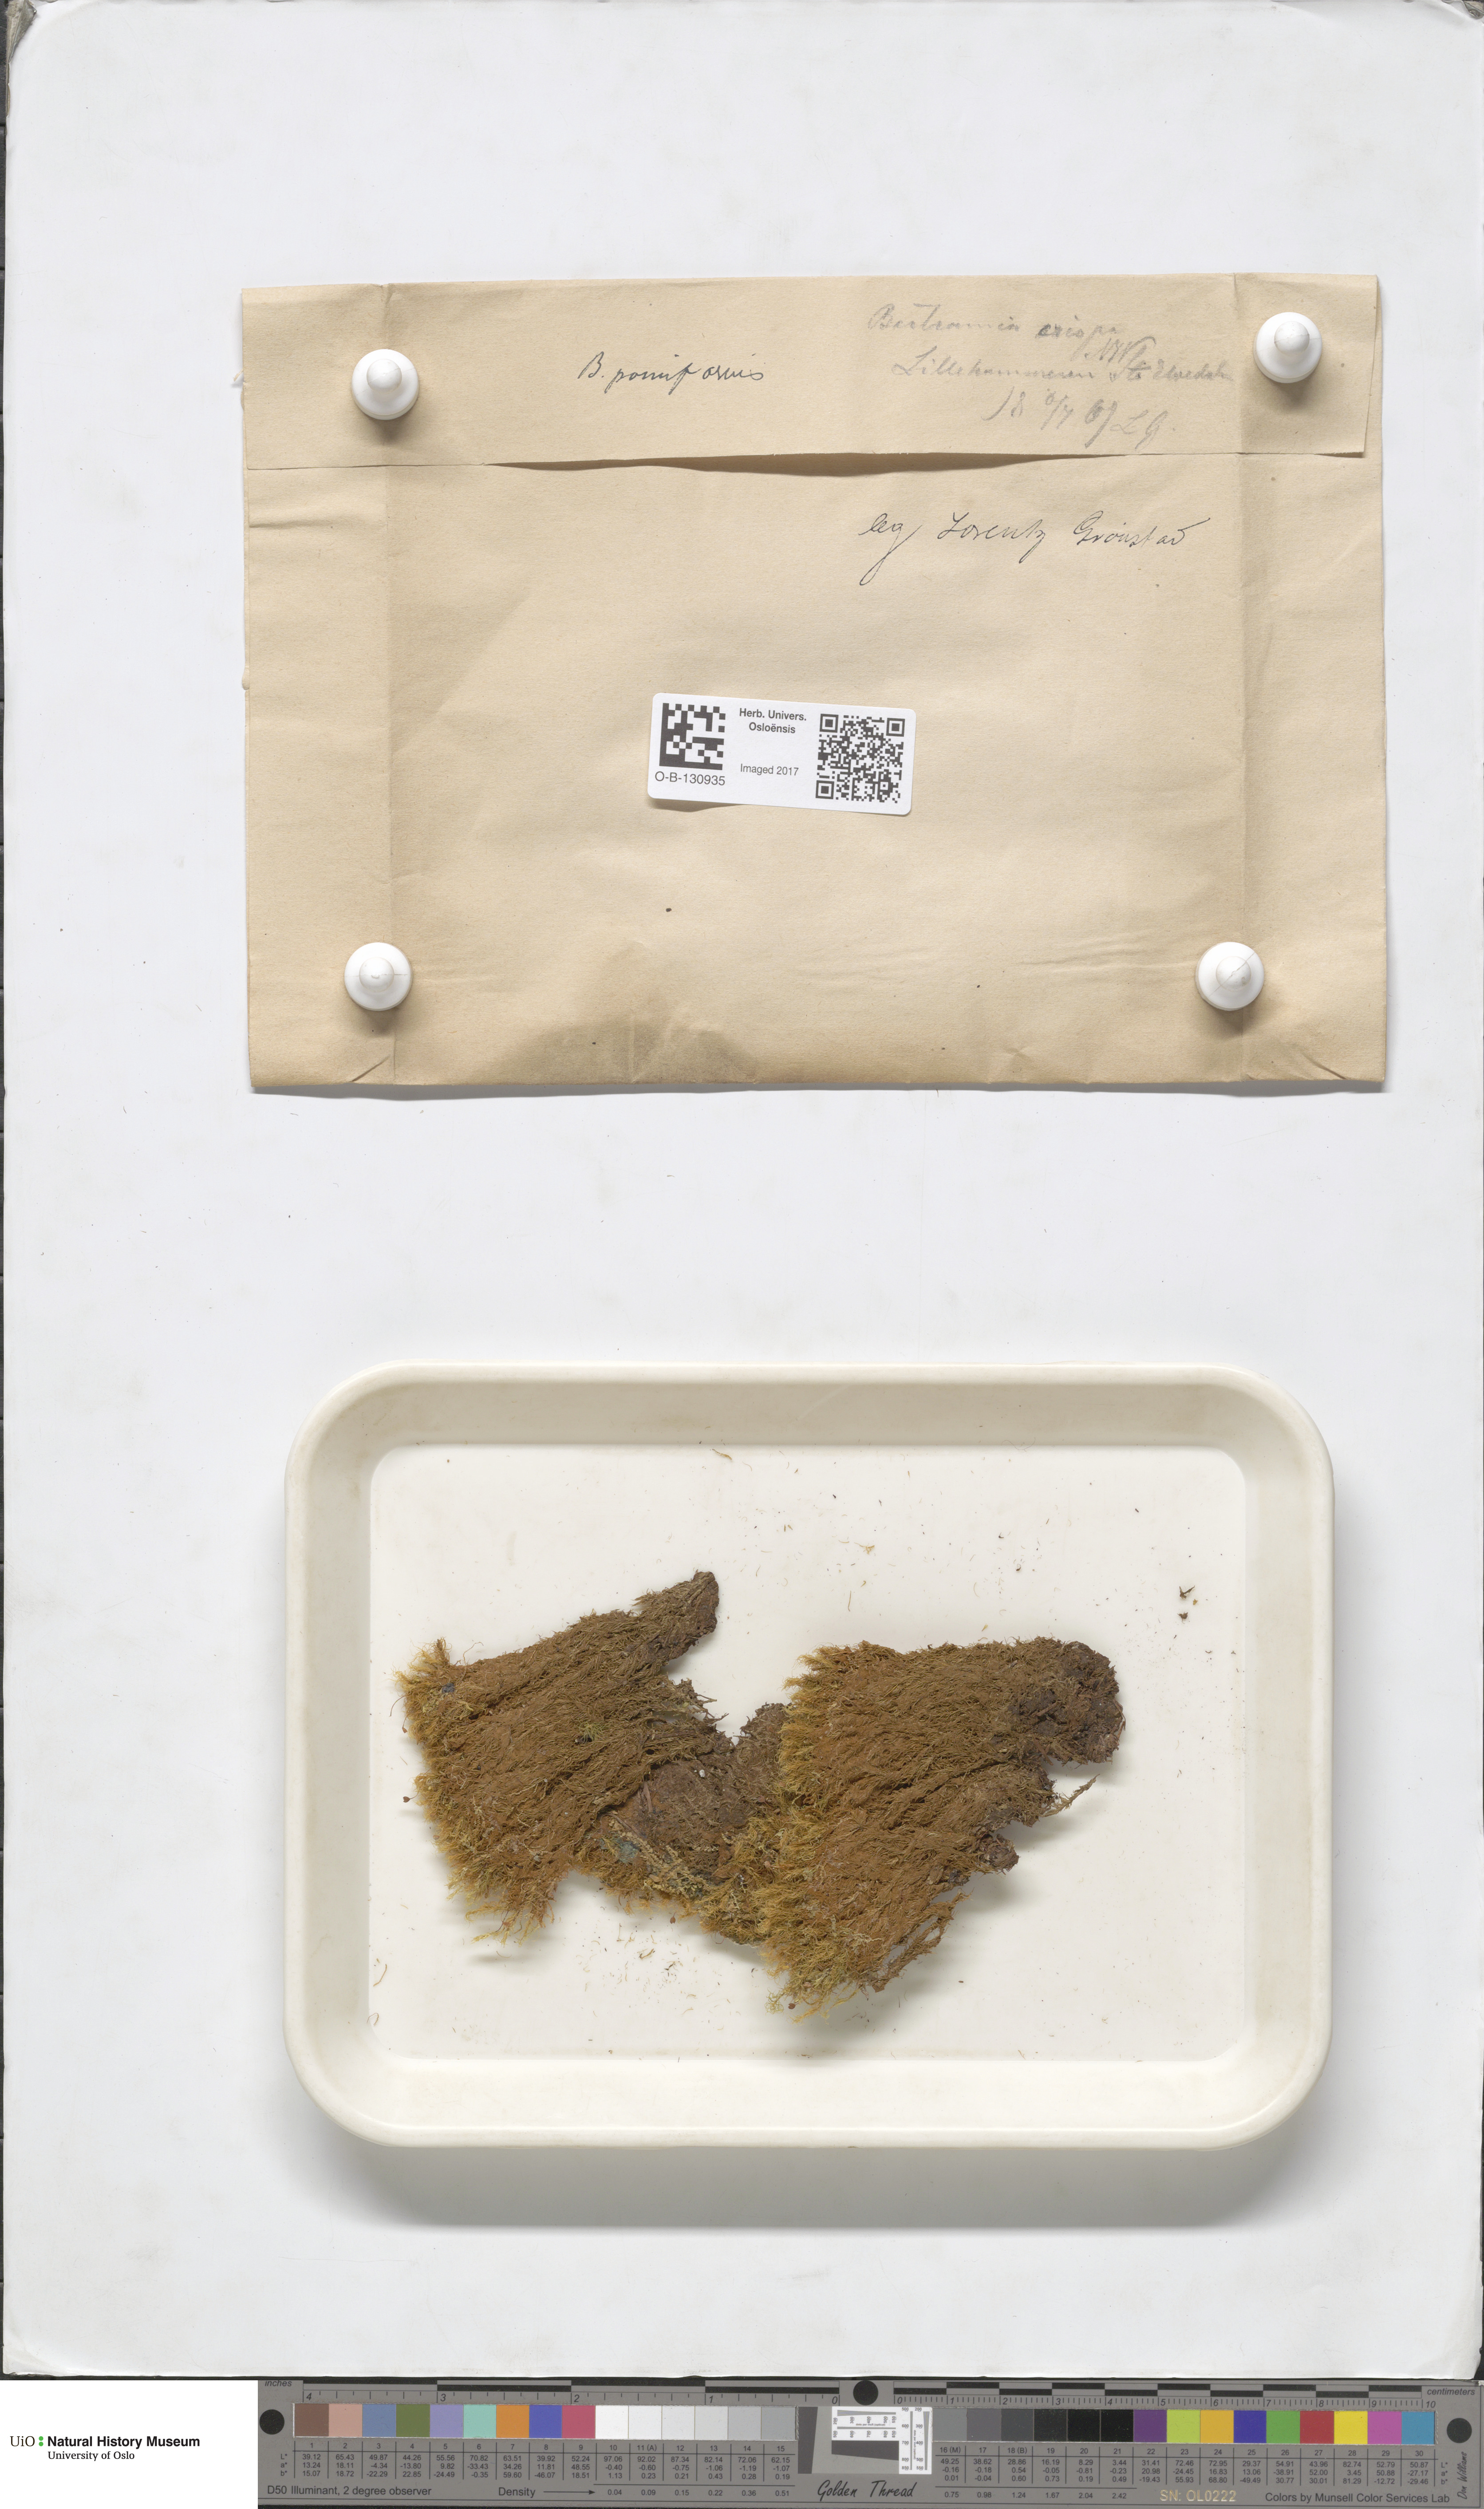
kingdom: Plantae
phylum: Bryophyta
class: Bryopsida
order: Bartramiales
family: Bartramiaceae
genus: Bartramia
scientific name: Bartramia pomiformis
